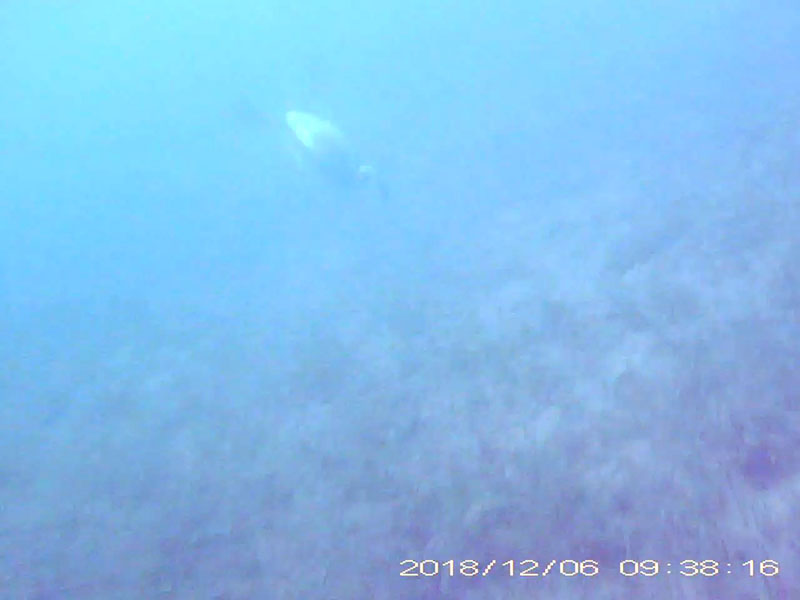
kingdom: Animalia
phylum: Chordata
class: Aves
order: Podicipediformes
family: Podicipedidae
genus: Podiceps
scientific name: Podiceps nigricollis
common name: カイツブリ
